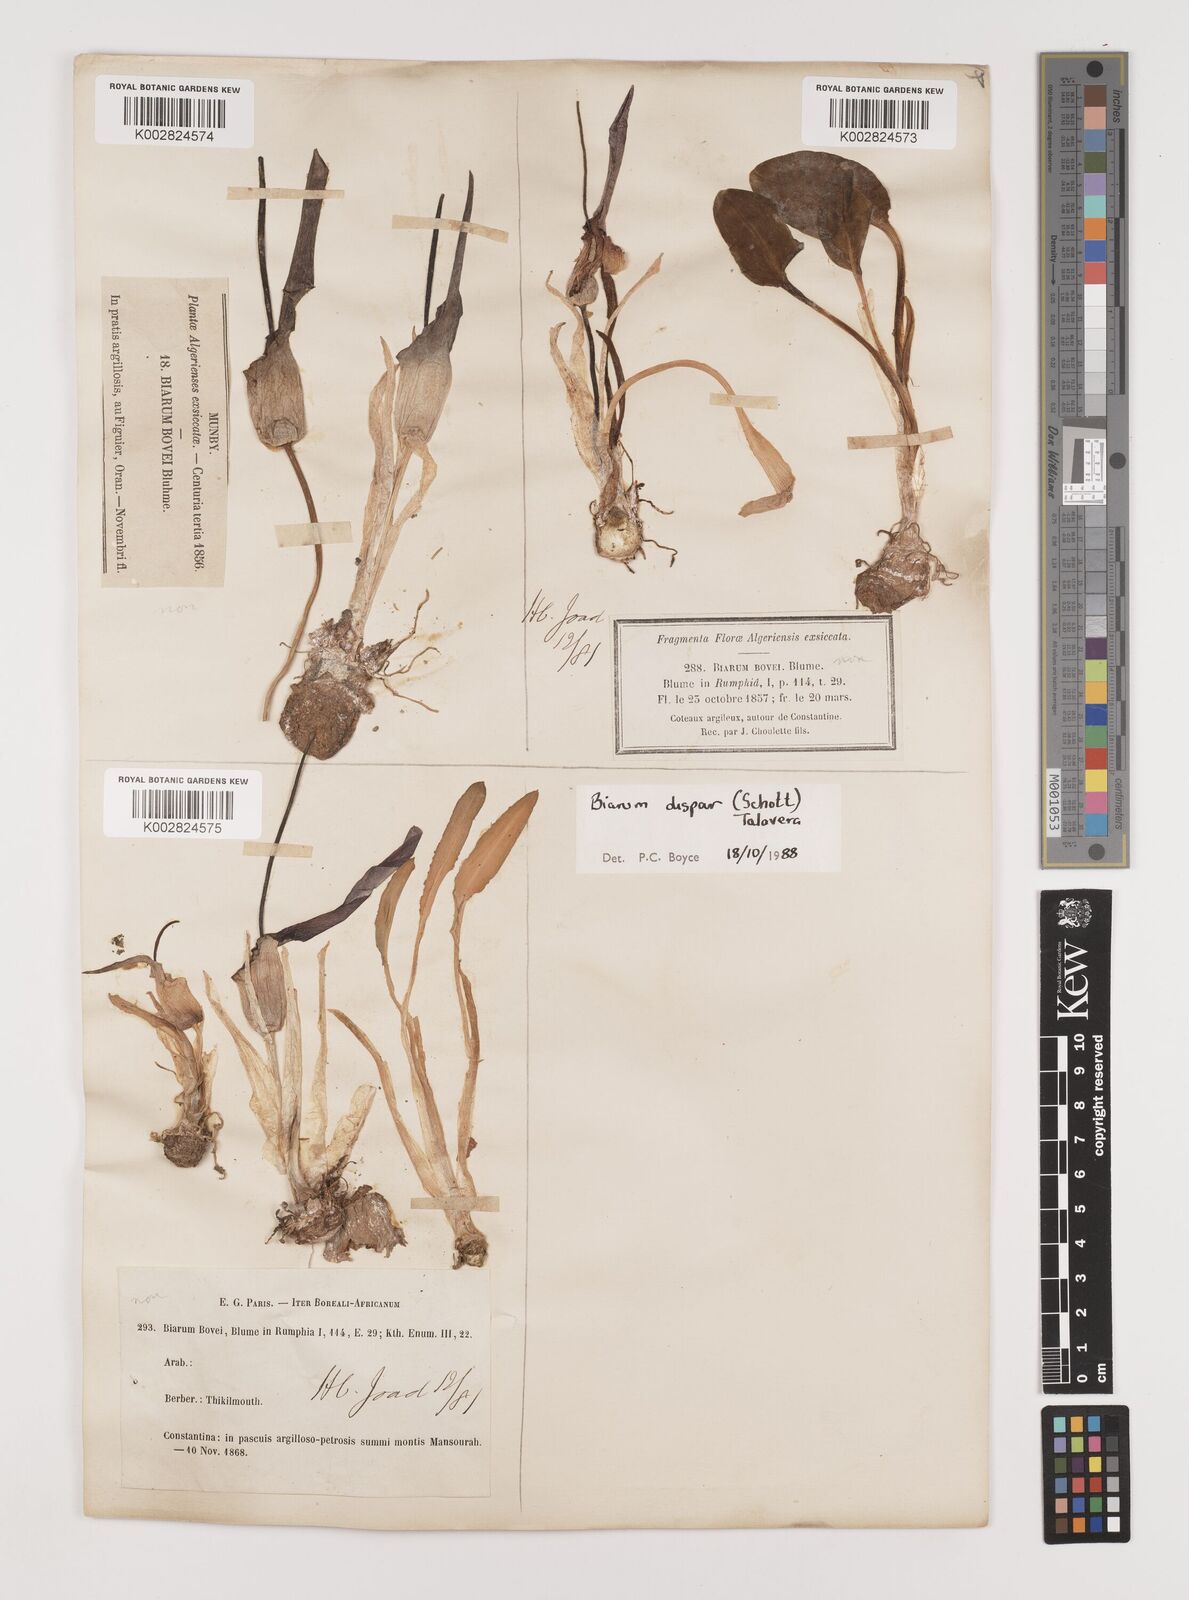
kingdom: Plantae
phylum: Tracheophyta
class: Liliopsida
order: Alismatales
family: Araceae
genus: Biarum
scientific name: Biarum dispar
